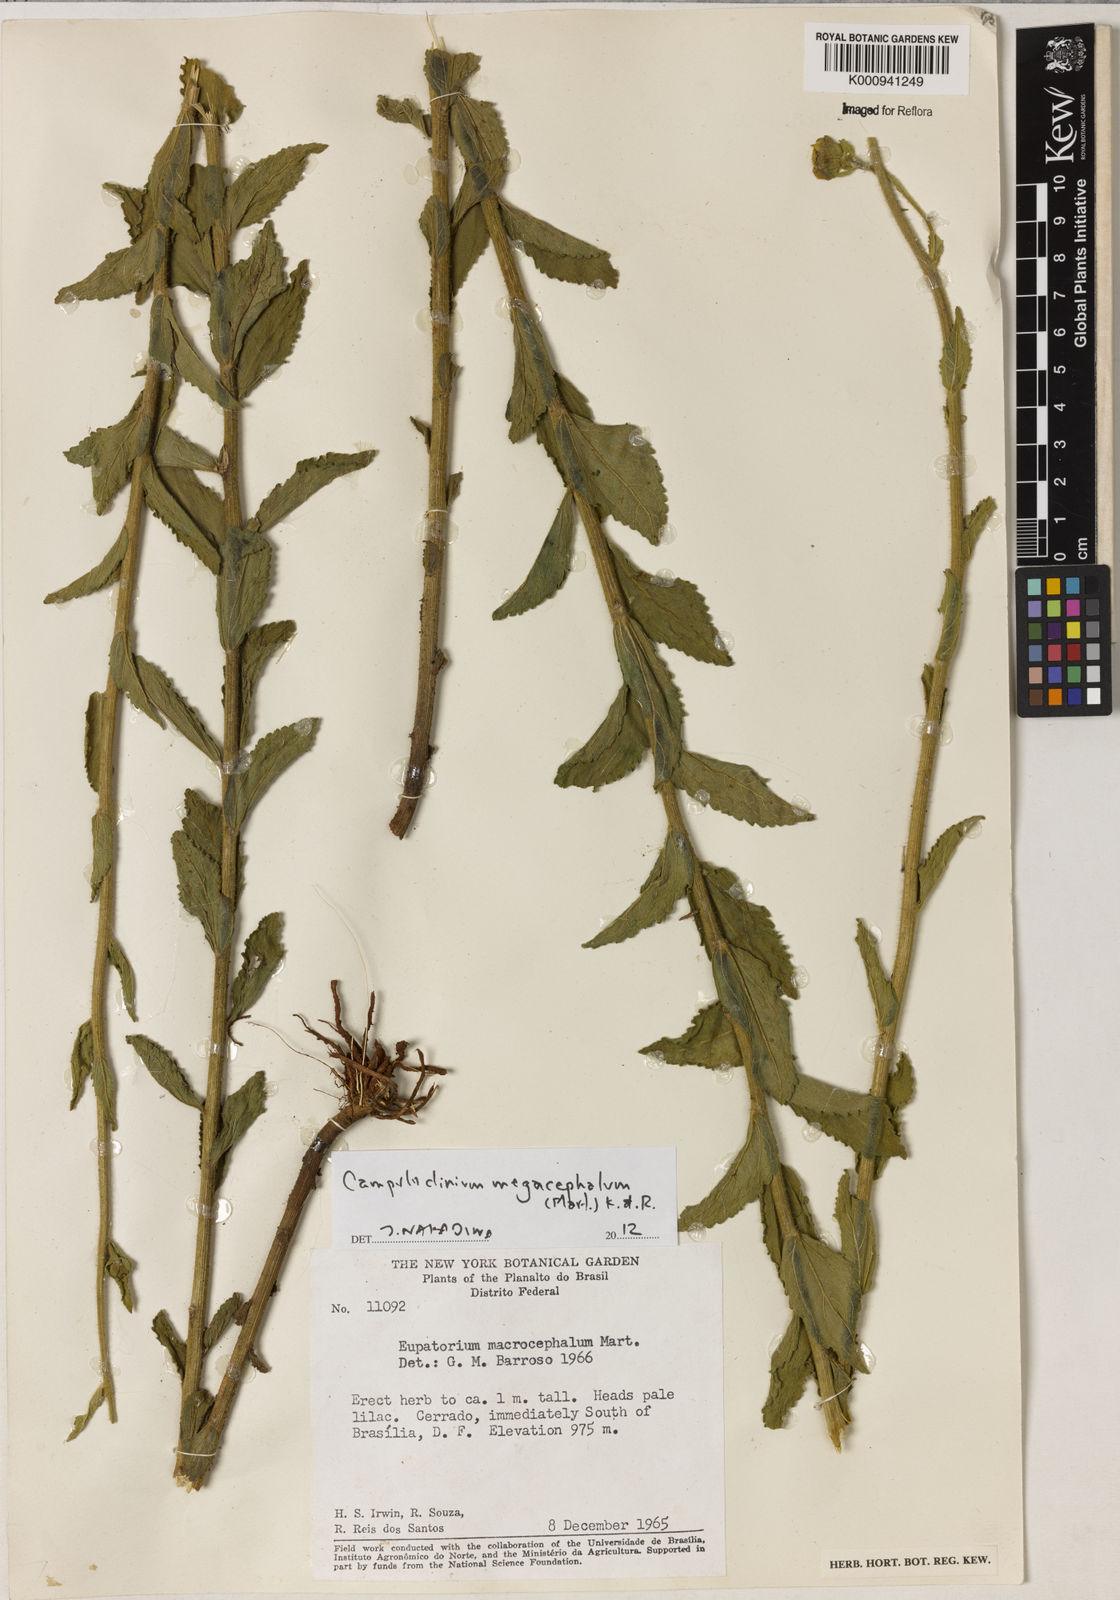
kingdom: Plantae
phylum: Tracheophyta
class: Magnoliopsida
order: Asterales
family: Asteraceae
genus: Campuloclinium
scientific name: Campuloclinium megacephalum
